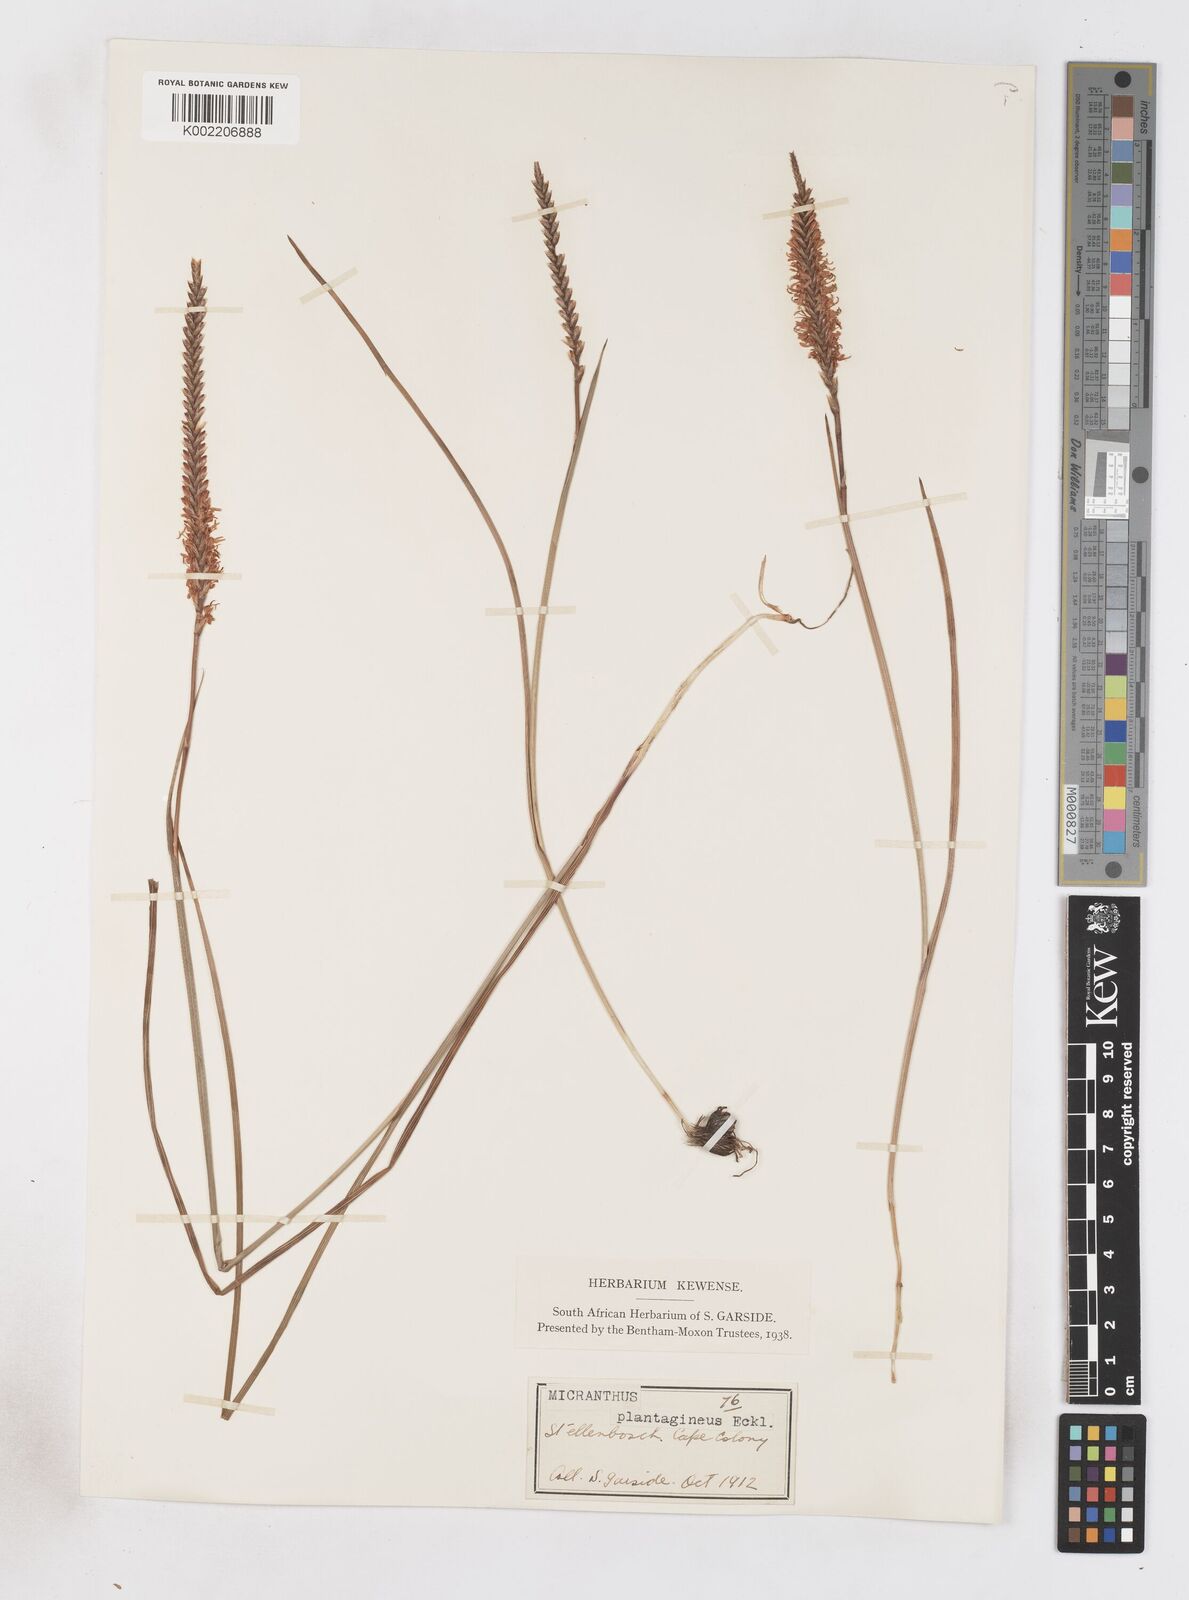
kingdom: Plantae
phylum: Tracheophyta
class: Liliopsida
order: Asparagales
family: Iridaceae
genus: Micranthus
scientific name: Micranthus plantagineus
